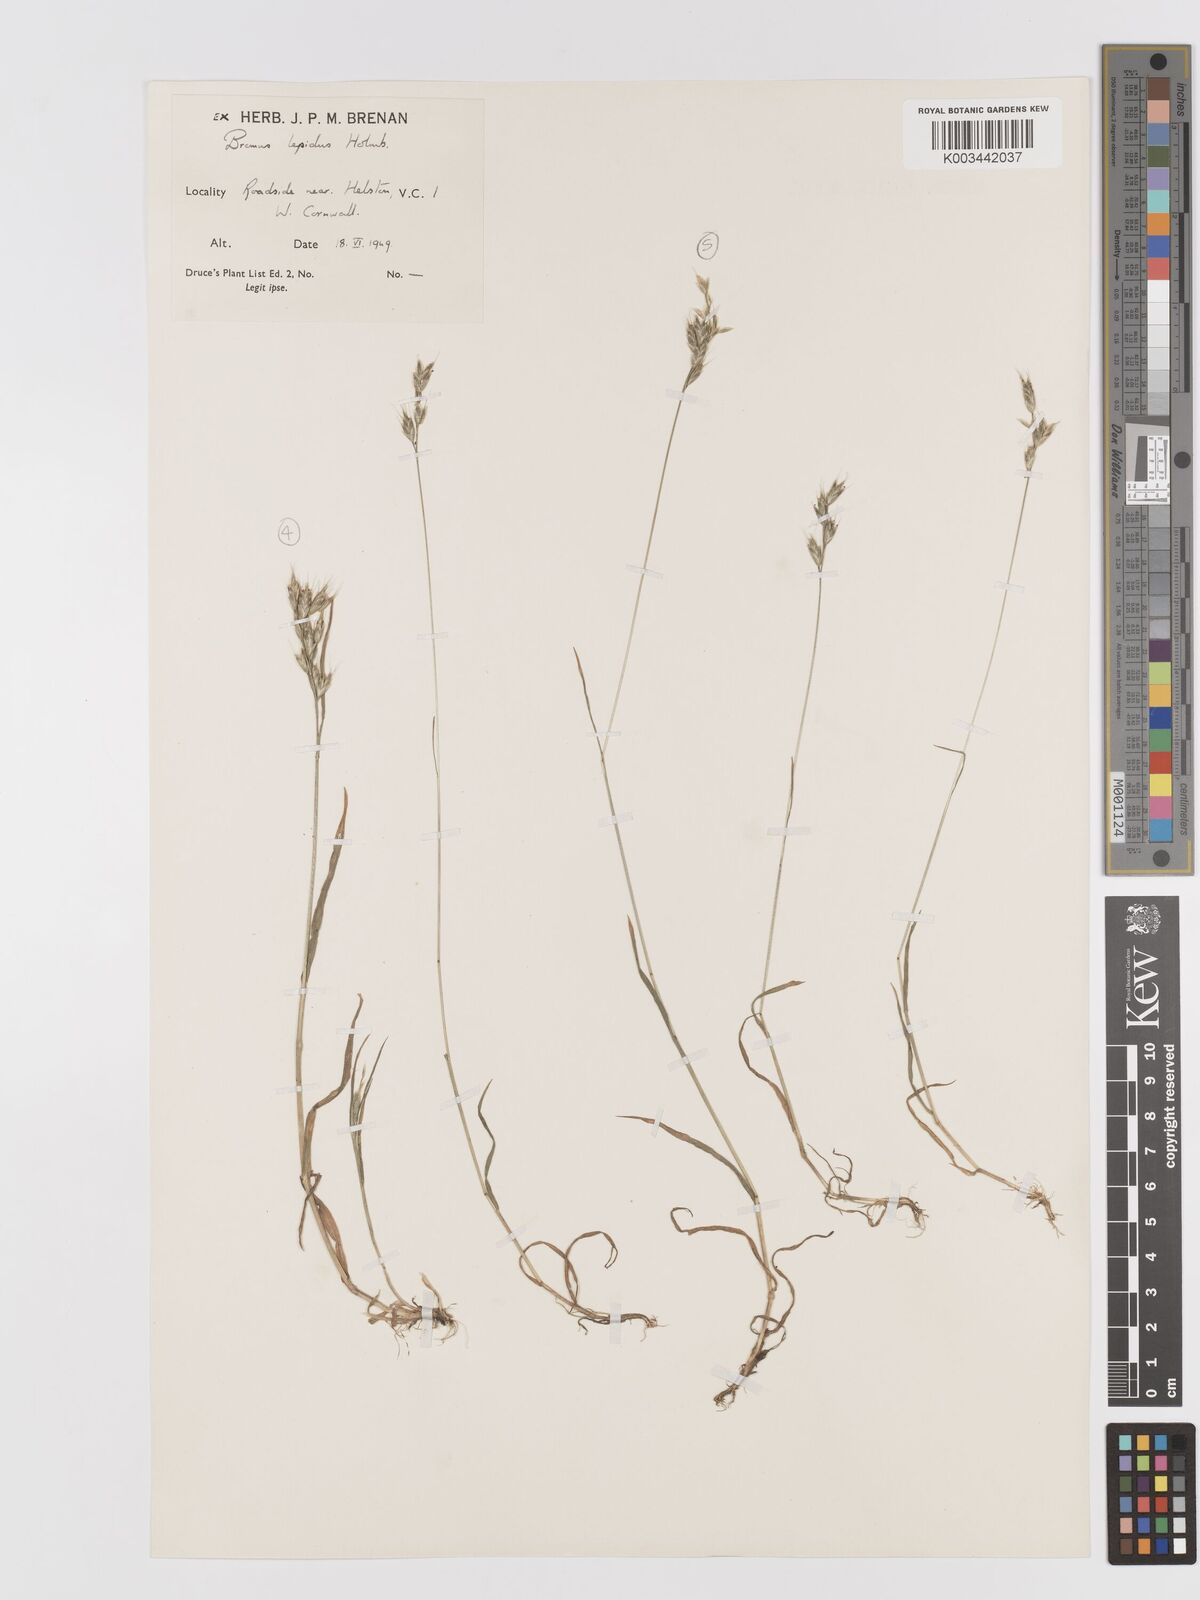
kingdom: Plantae
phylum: Tracheophyta
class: Liliopsida
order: Poales
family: Poaceae
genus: Bromus
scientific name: Bromus lepidus
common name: Slender soft-brome
